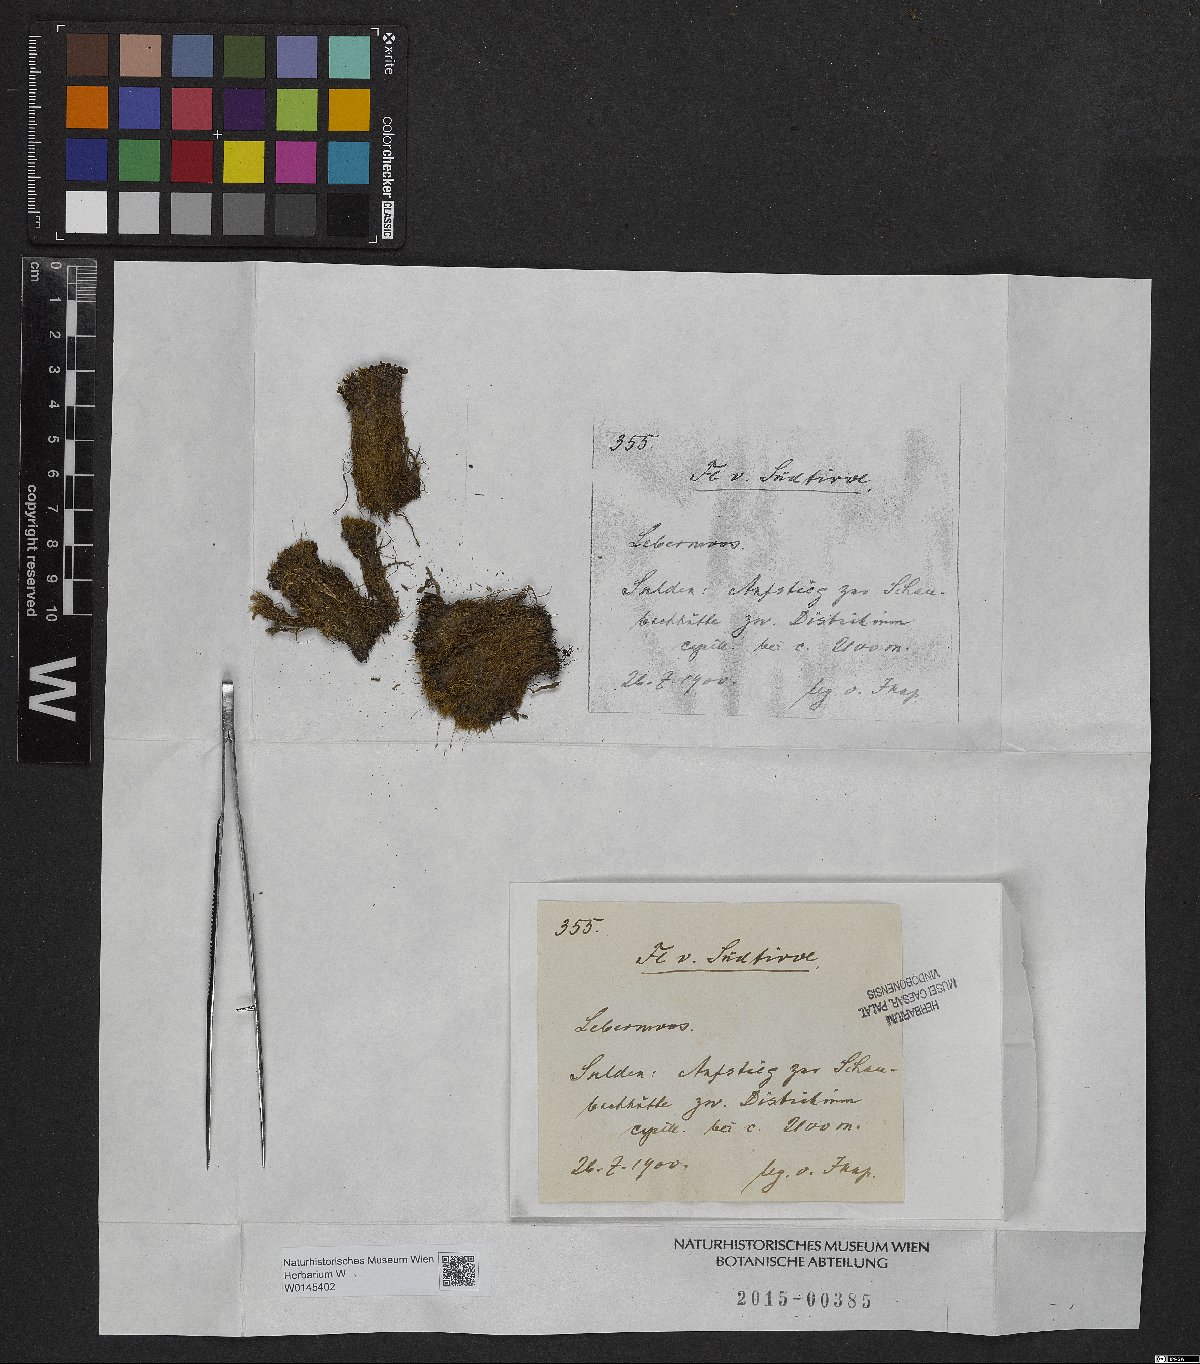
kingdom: Plantae
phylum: Marchantiophyta
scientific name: Marchantiophyta
